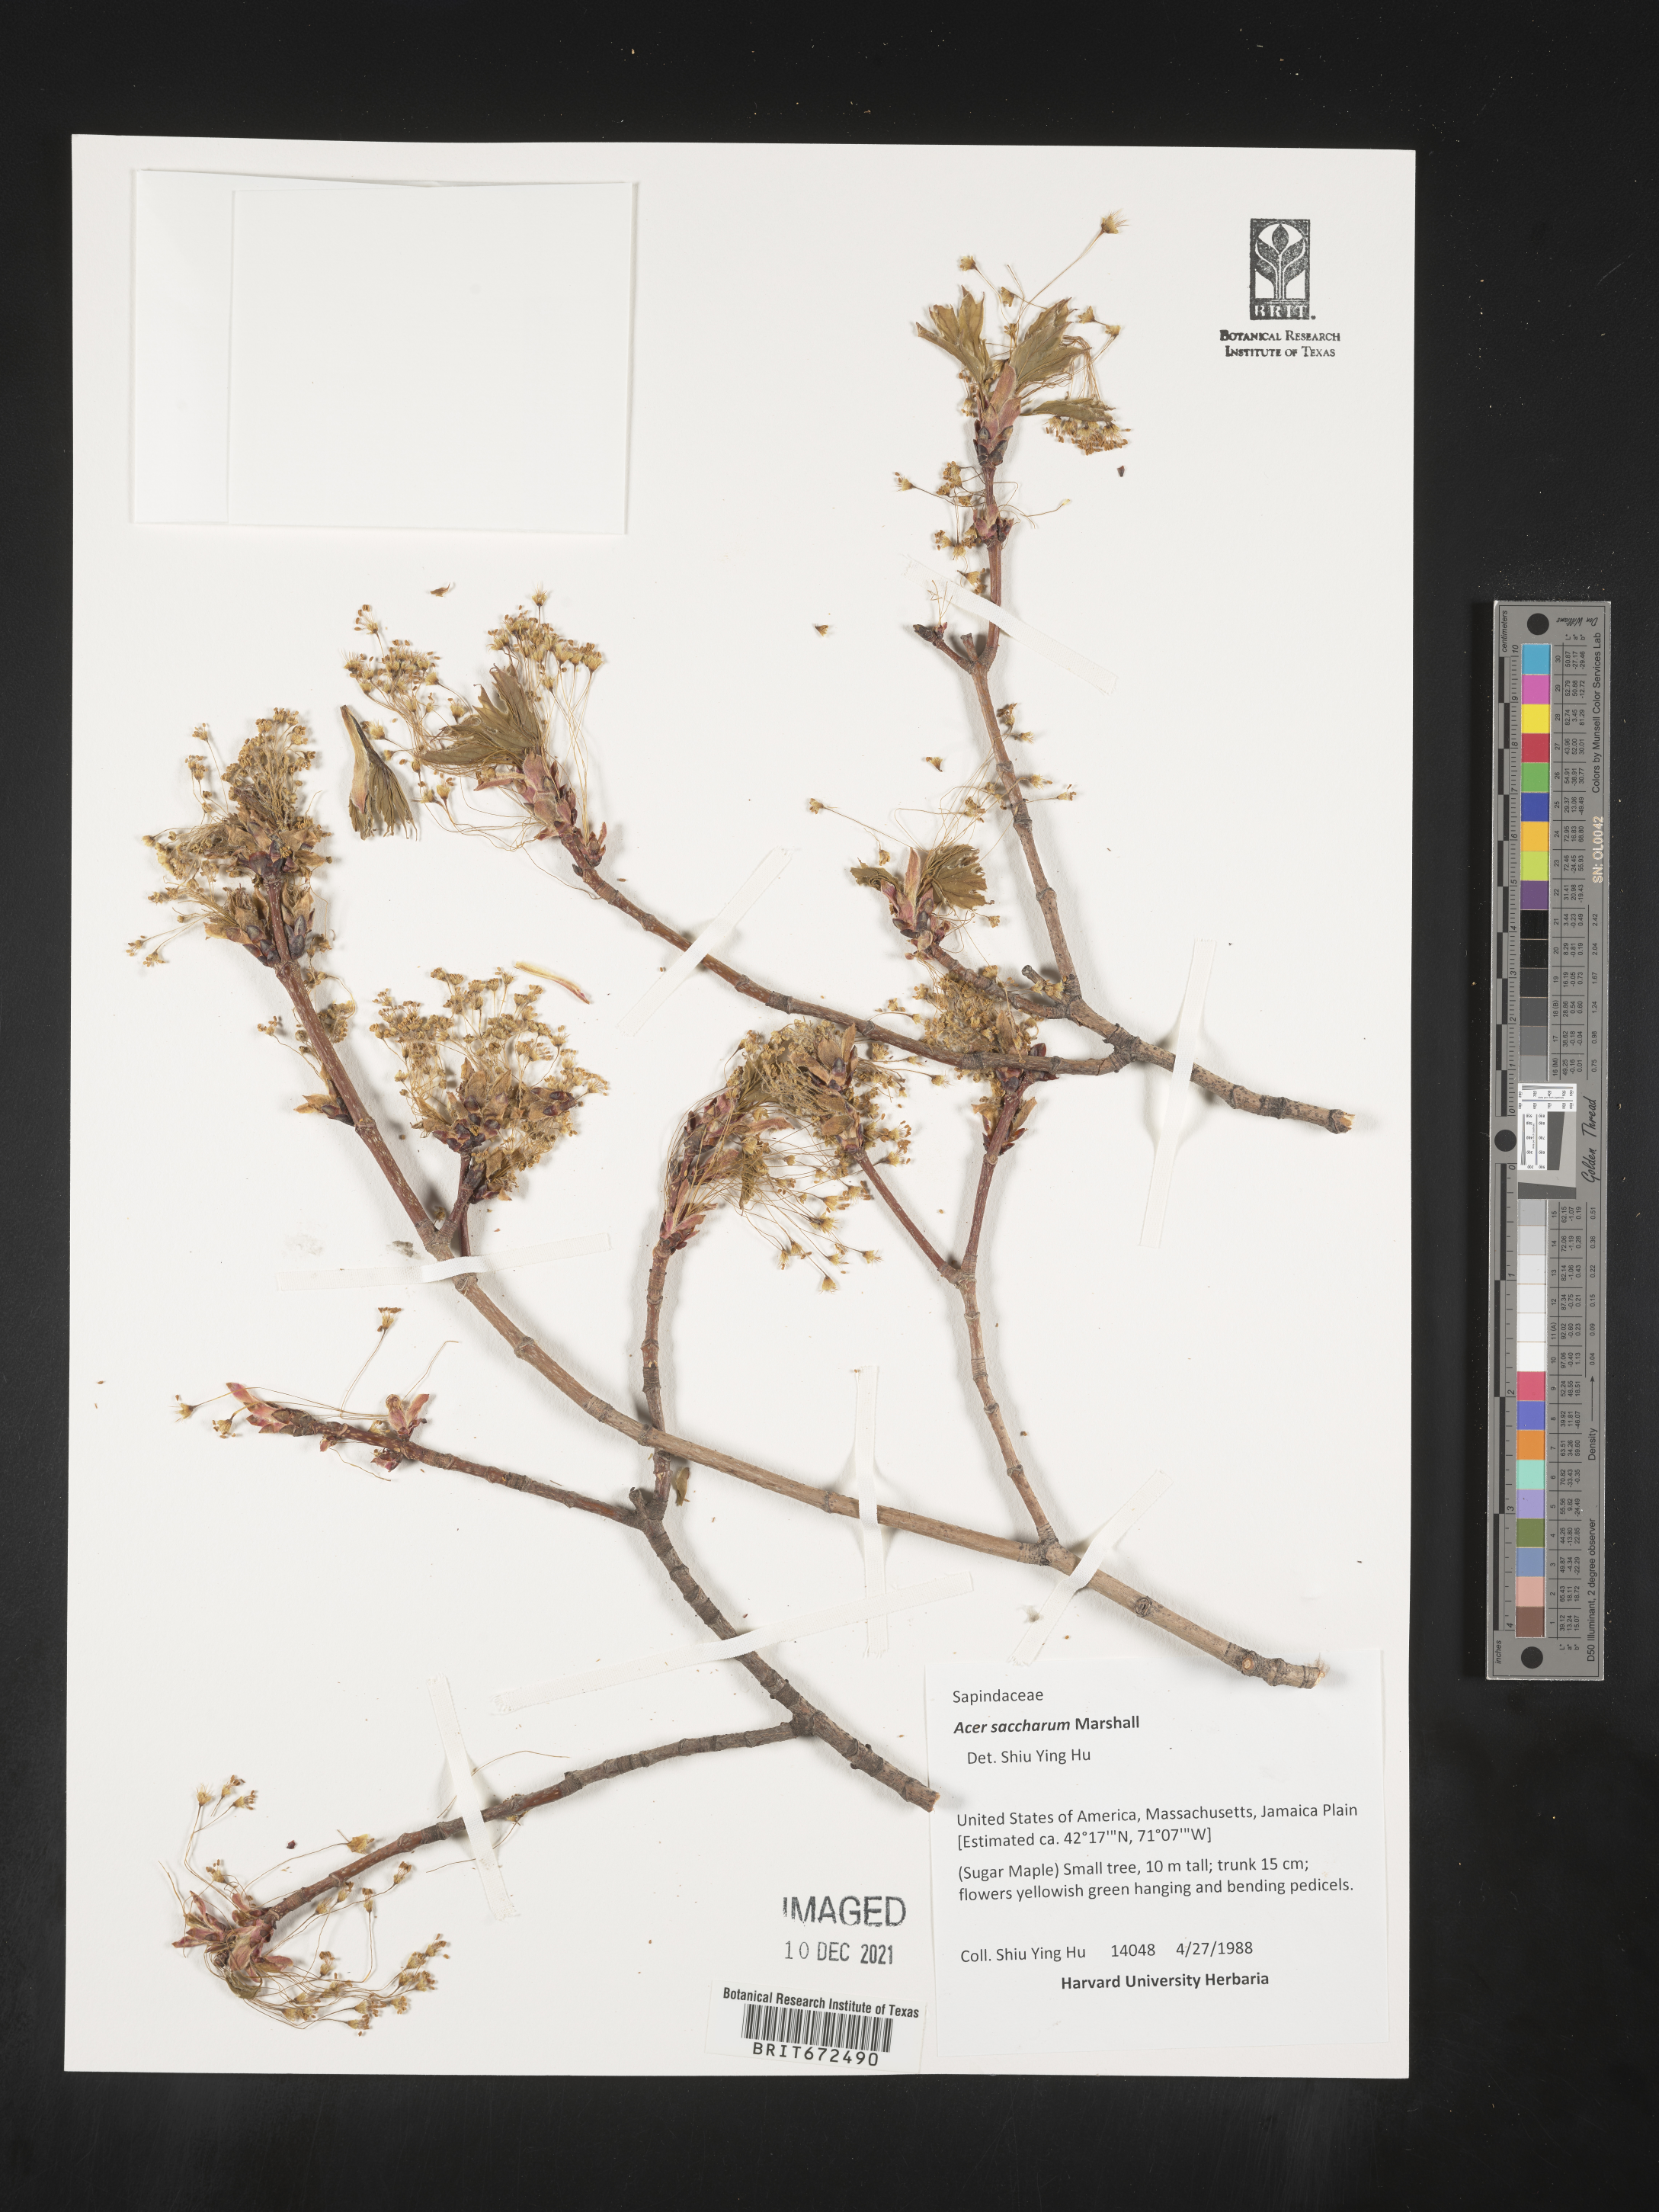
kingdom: Plantae
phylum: Tracheophyta
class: Magnoliopsida
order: Sapindales
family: Sapindaceae
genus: Acer
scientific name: Acer
